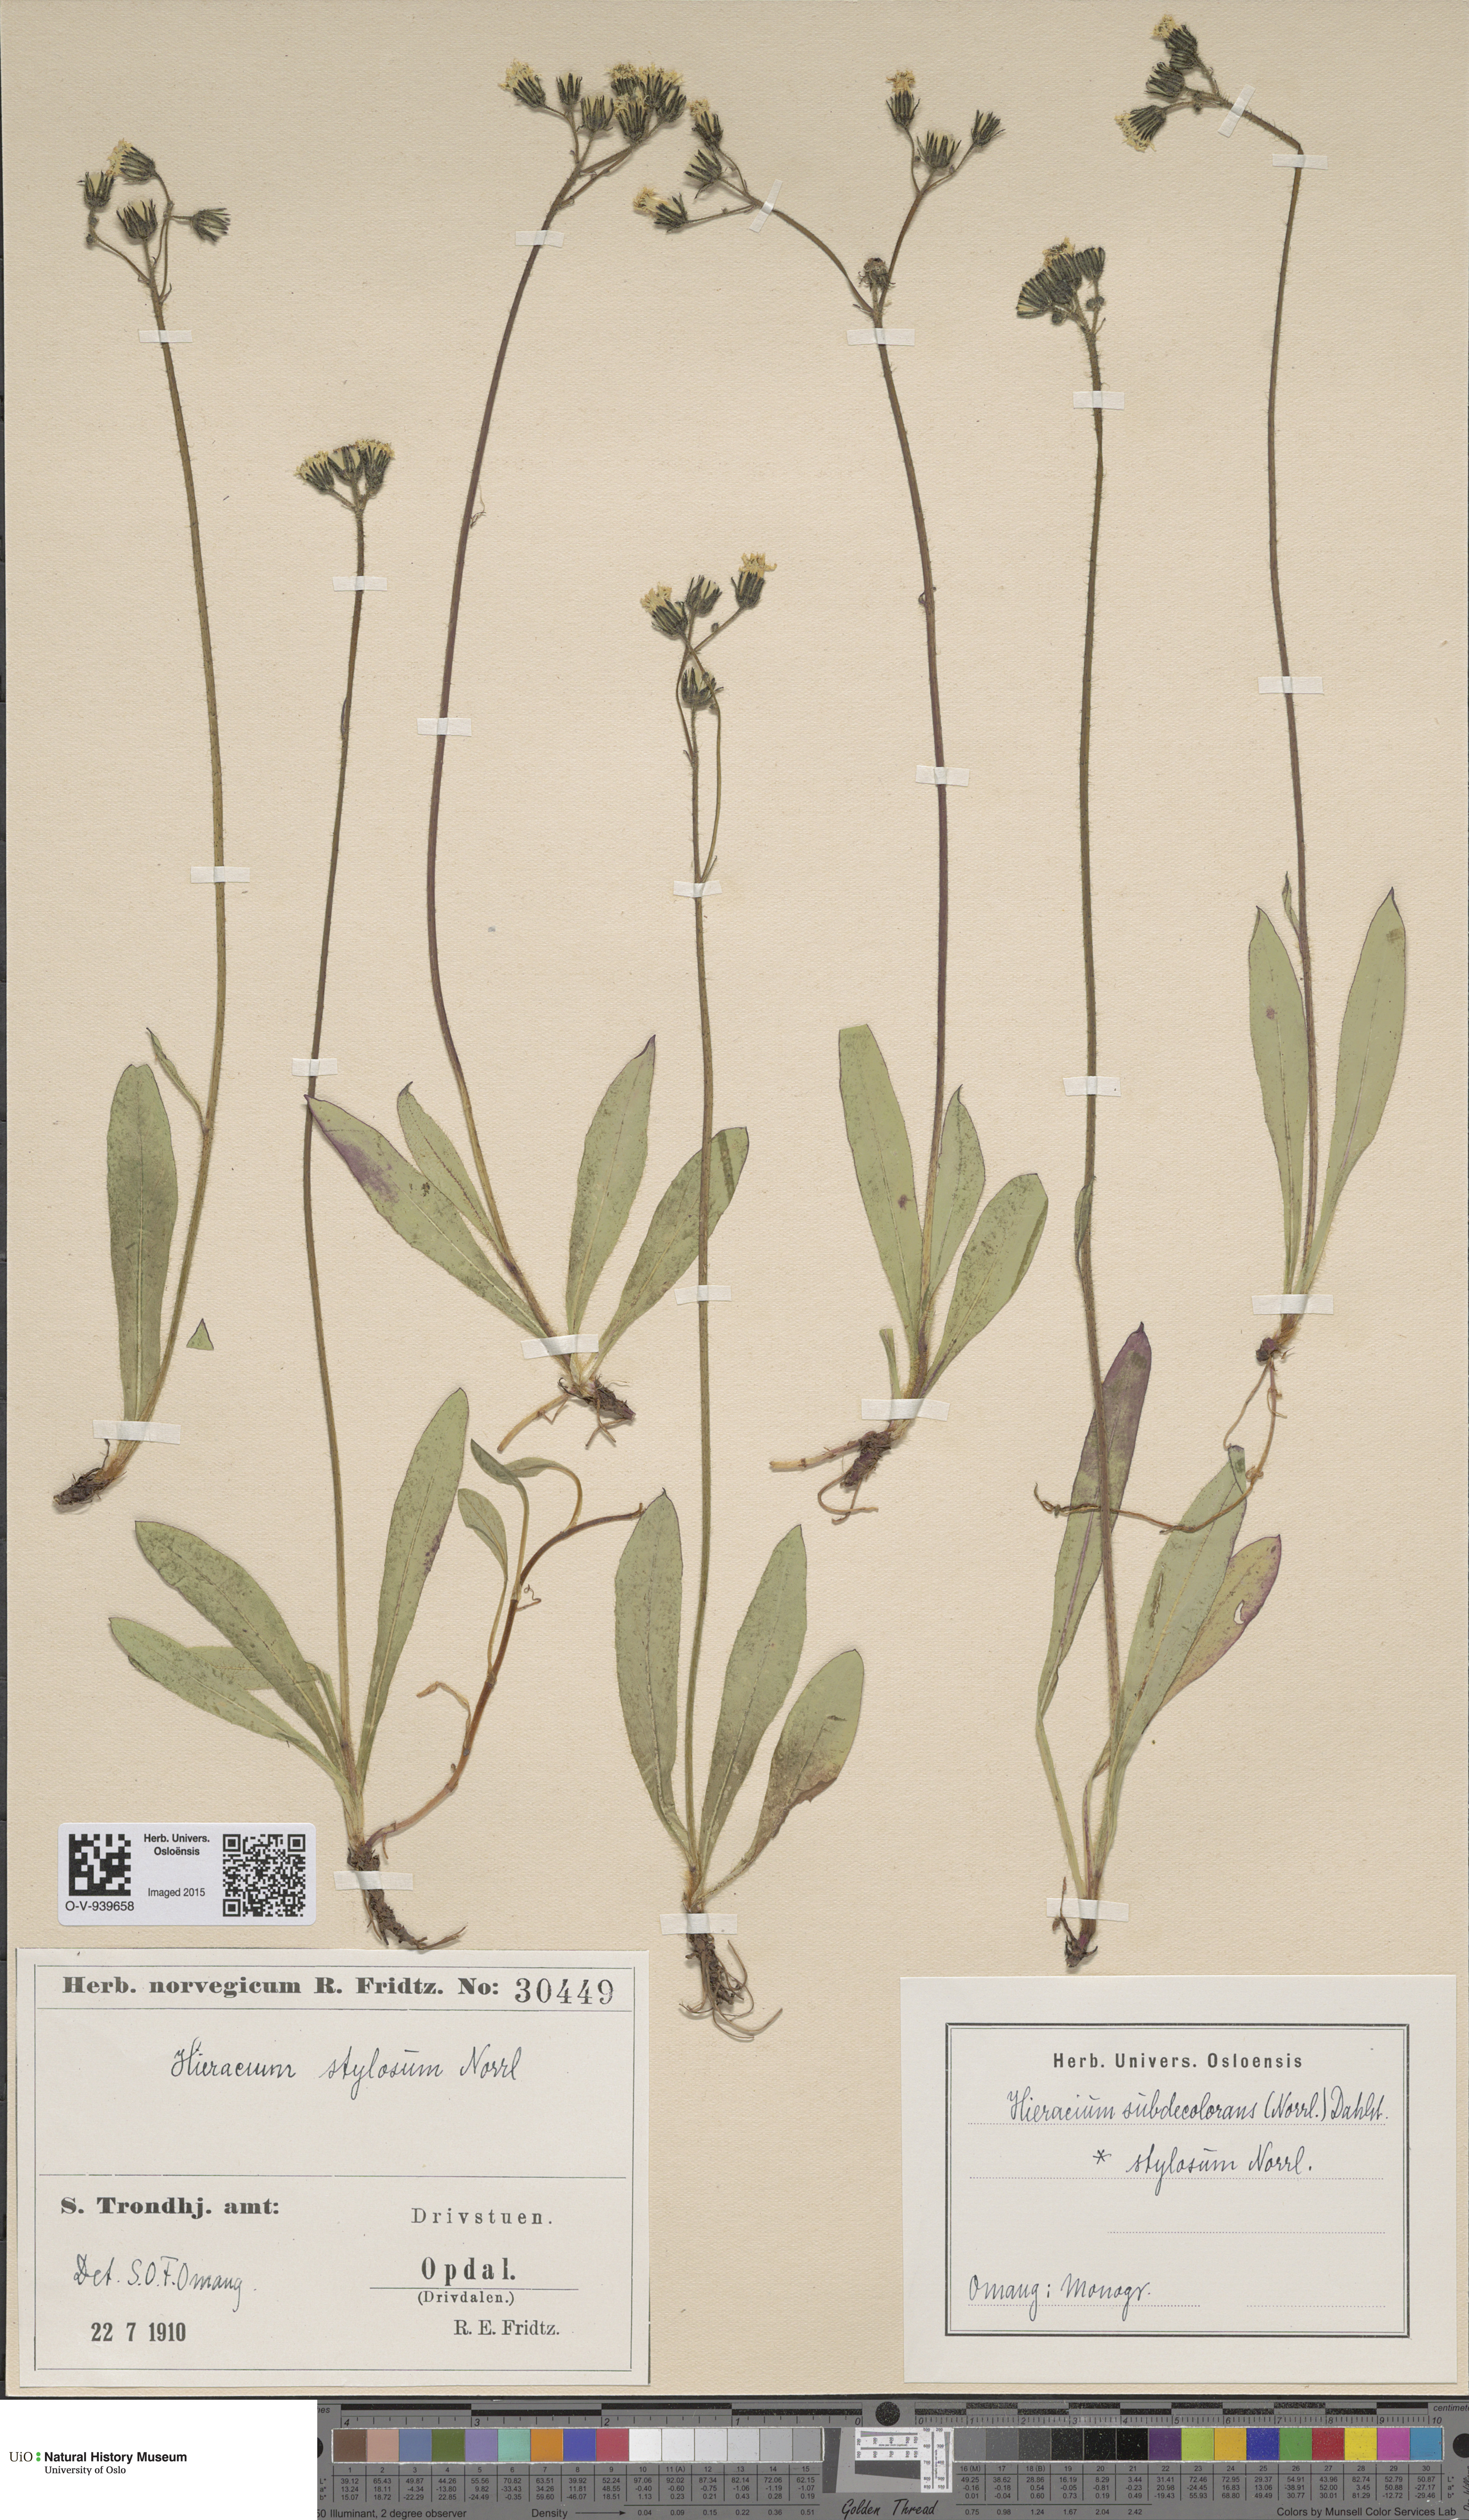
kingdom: Plantae
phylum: Tracheophyta
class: Magnoliopsida
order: Asterales
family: Asteraceae
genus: Pilosella
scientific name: Pilosella subdecolorans
